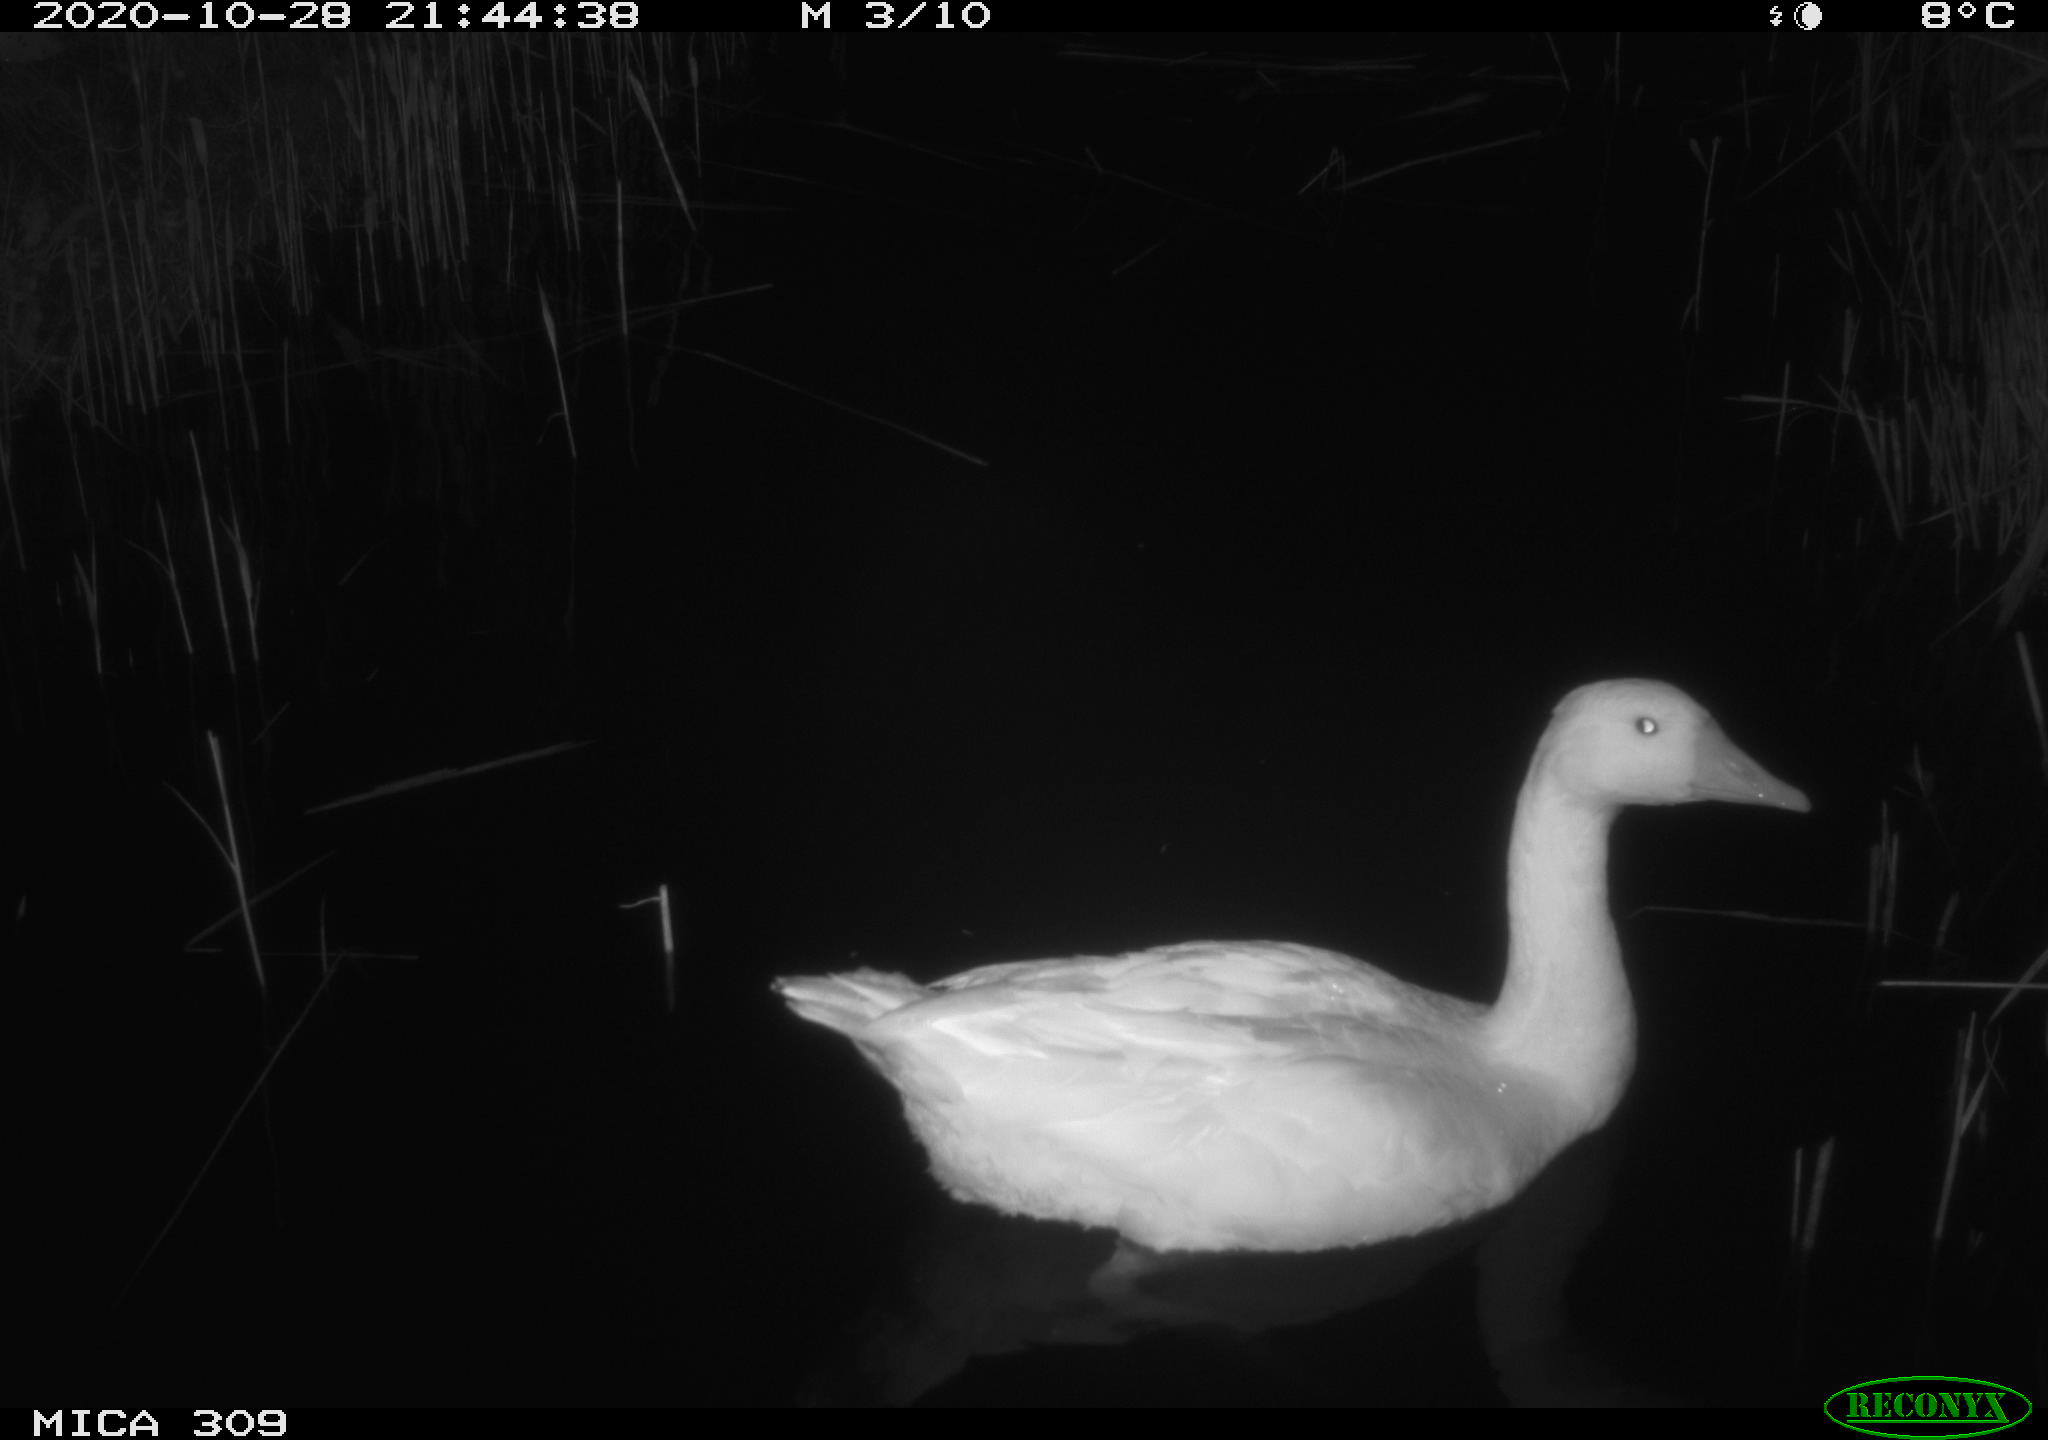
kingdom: Animalia
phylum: Chordata
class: Aves
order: Anseriformes
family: Anatidae
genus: Anser
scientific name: Anser anser
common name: Greylag goose
